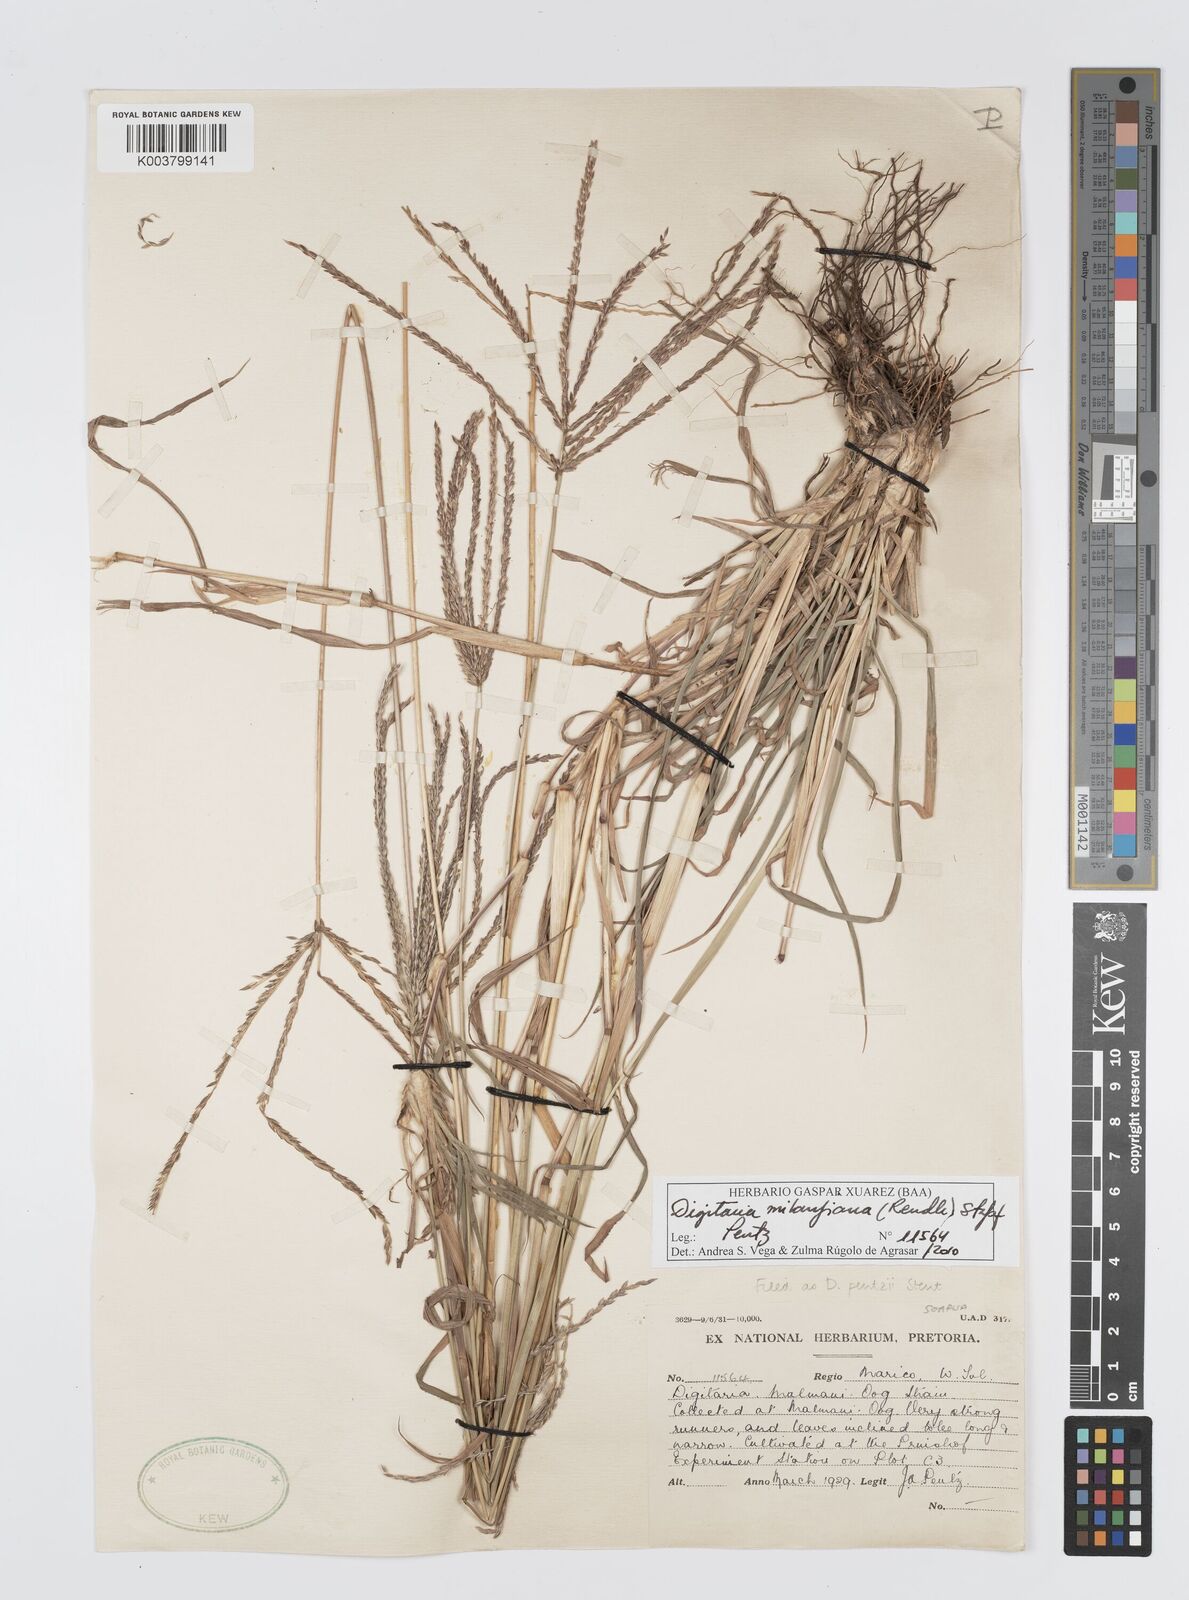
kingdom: Plantae
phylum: Tracheophyta
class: Liliopsida
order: Poales
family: Poaceae
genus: Digitaria
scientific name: Digitaria milanjiana
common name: Madagascar crabgrass
